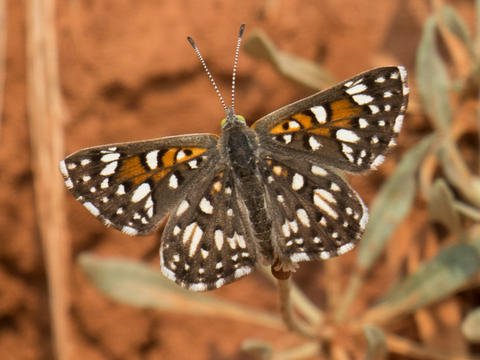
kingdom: Animalia
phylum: Arthropoda
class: Insecta
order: Lepidoptera
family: Riodinidae
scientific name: Riodinidae
